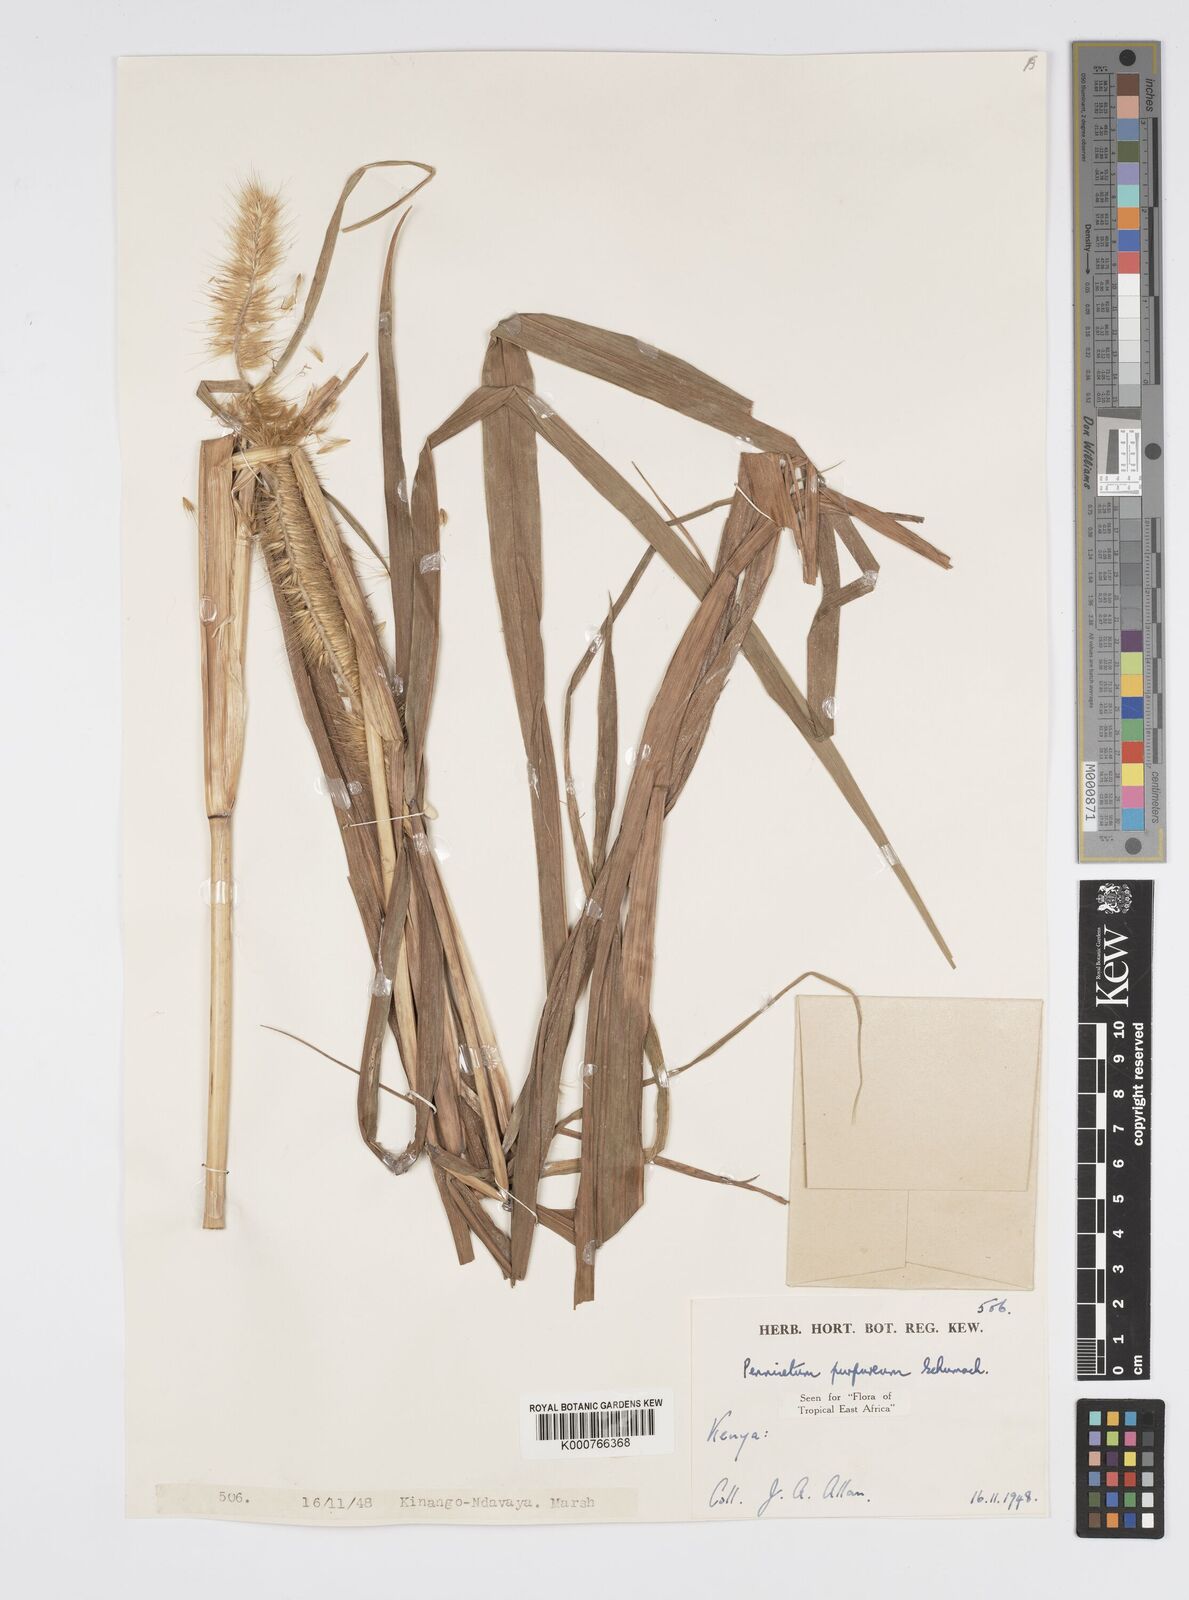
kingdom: Plantae
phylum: Tracheophyta
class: Liliopsida
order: Poales
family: Poaceae
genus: Cenchrus
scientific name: Cenchrus purpureus
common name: Elephant grass
